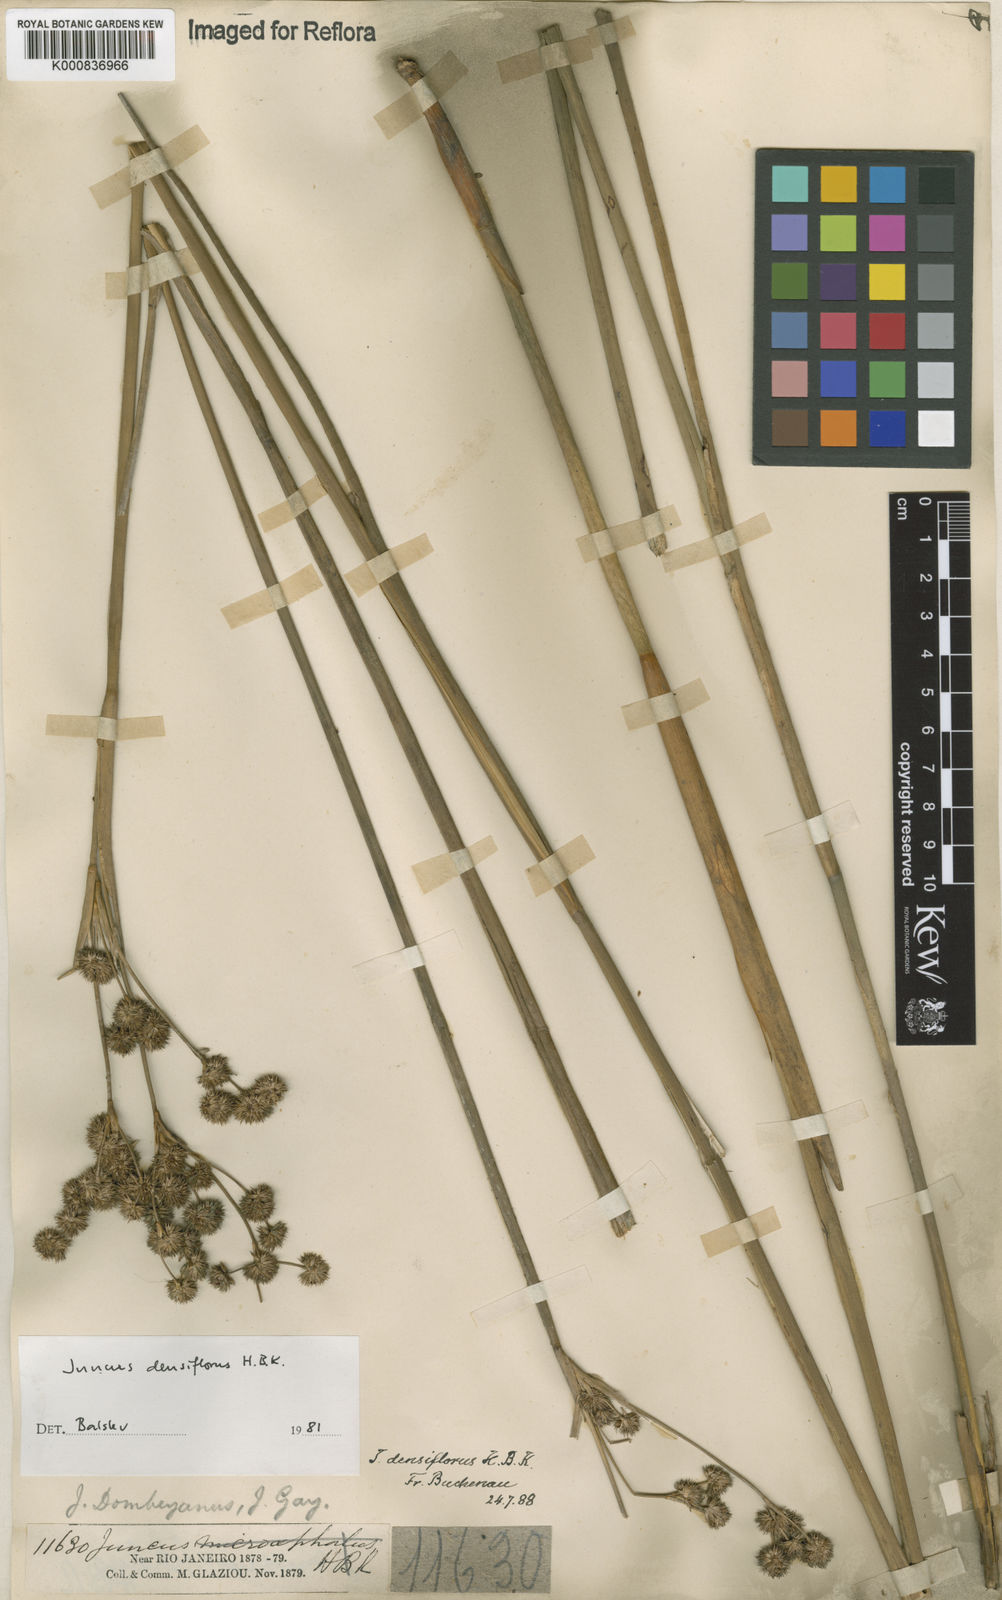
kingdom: Plantae
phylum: Tracheophyta
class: Liliopsida
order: Poales
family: Juncaceae
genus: Juncus
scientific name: Juncus densiflorus
